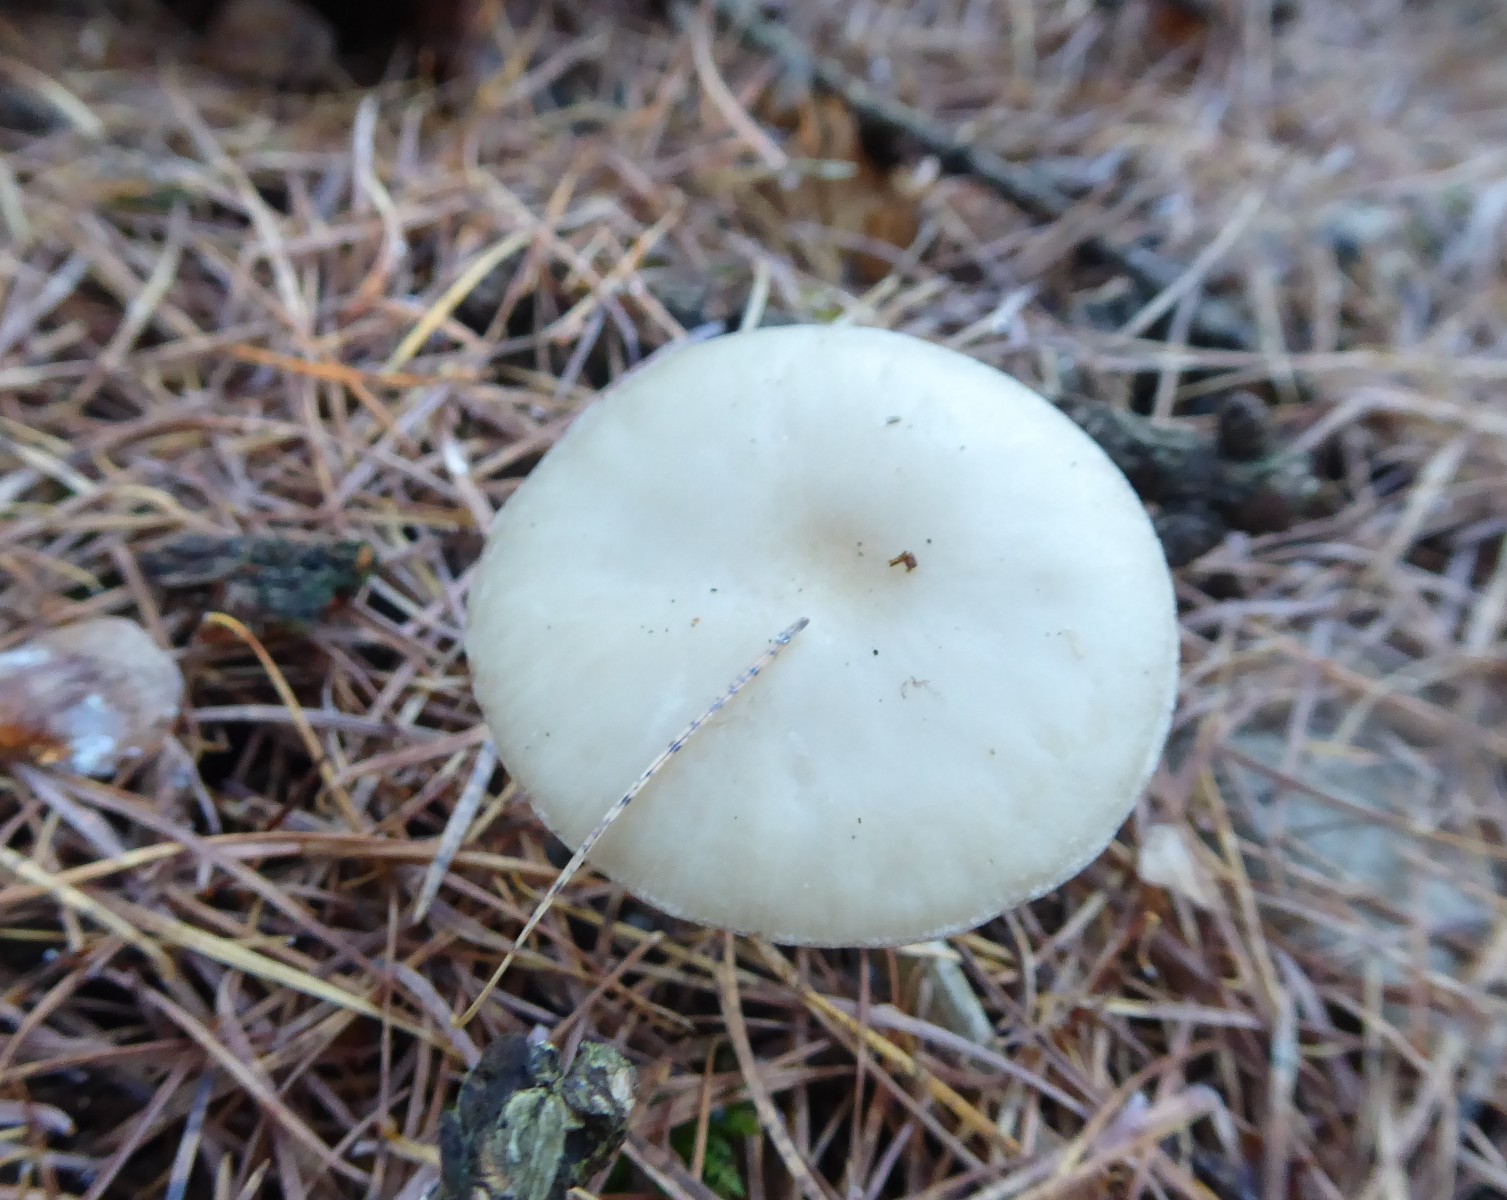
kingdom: Fungi
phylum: Basidiomycota
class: Agaricomycetes
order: Agaricales
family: Tricholomataceae
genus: Clitocybe
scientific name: Clitocybe
